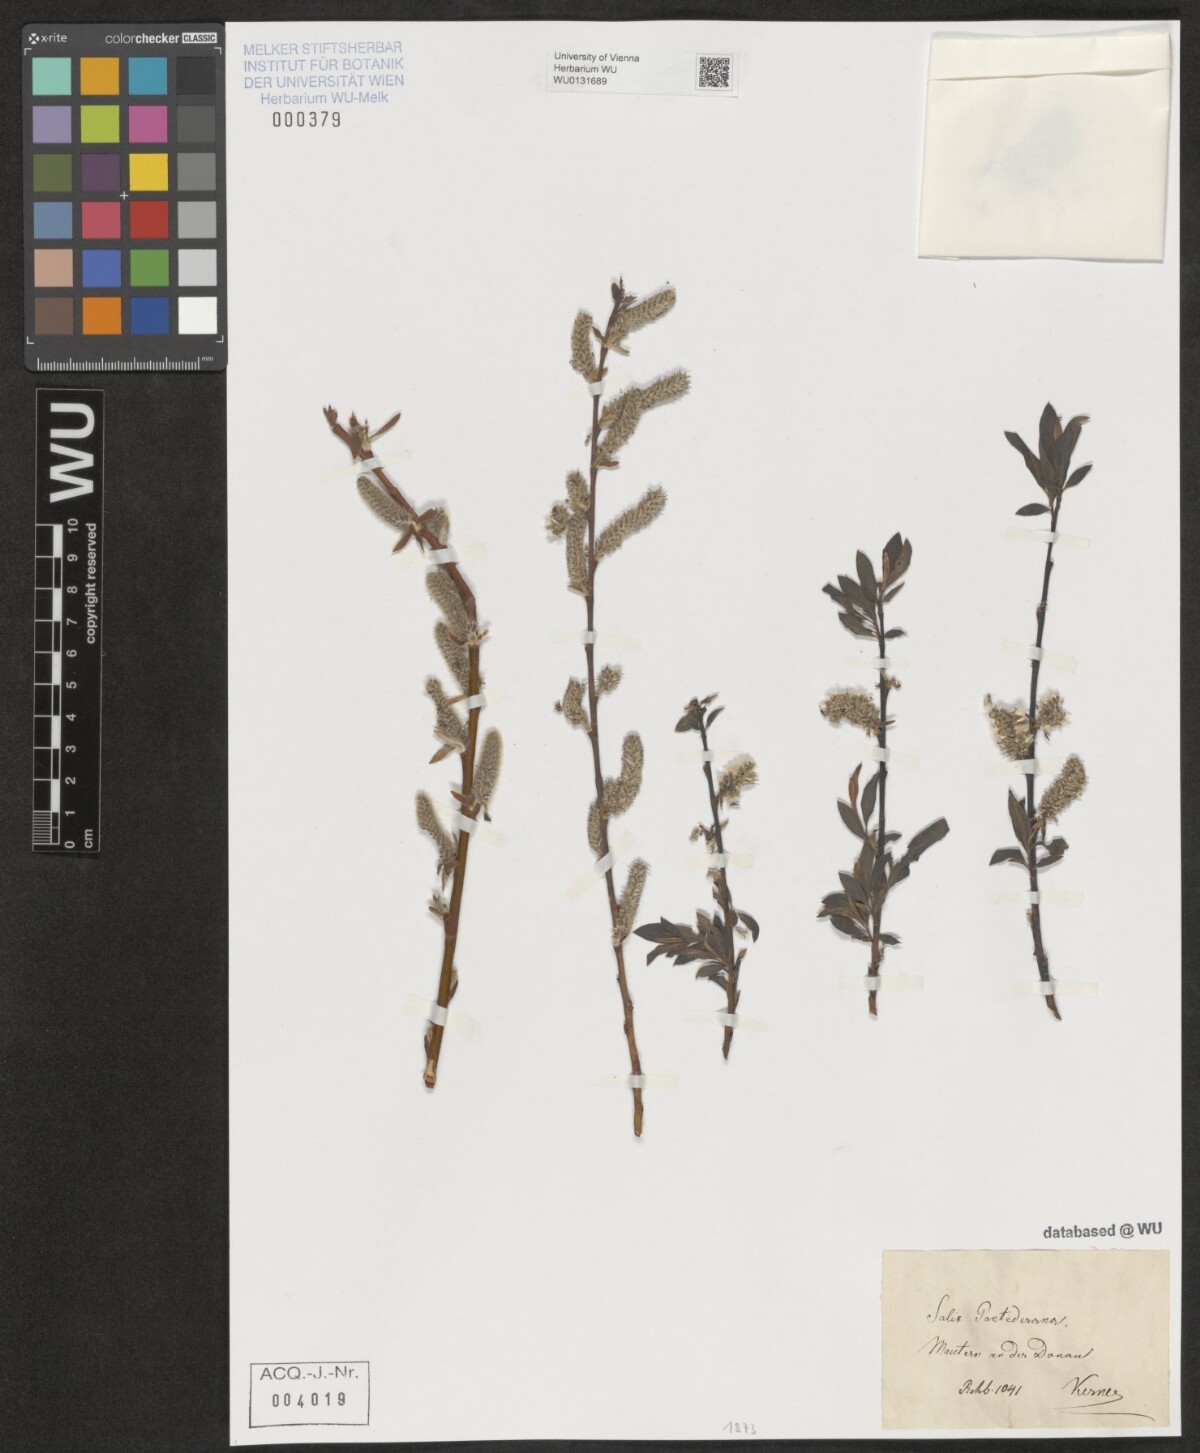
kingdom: Plantae
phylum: Tracheophyta
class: Magnoliopsida
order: Malpighiales
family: Salicaceae
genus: Salix
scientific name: Salix pontederana
